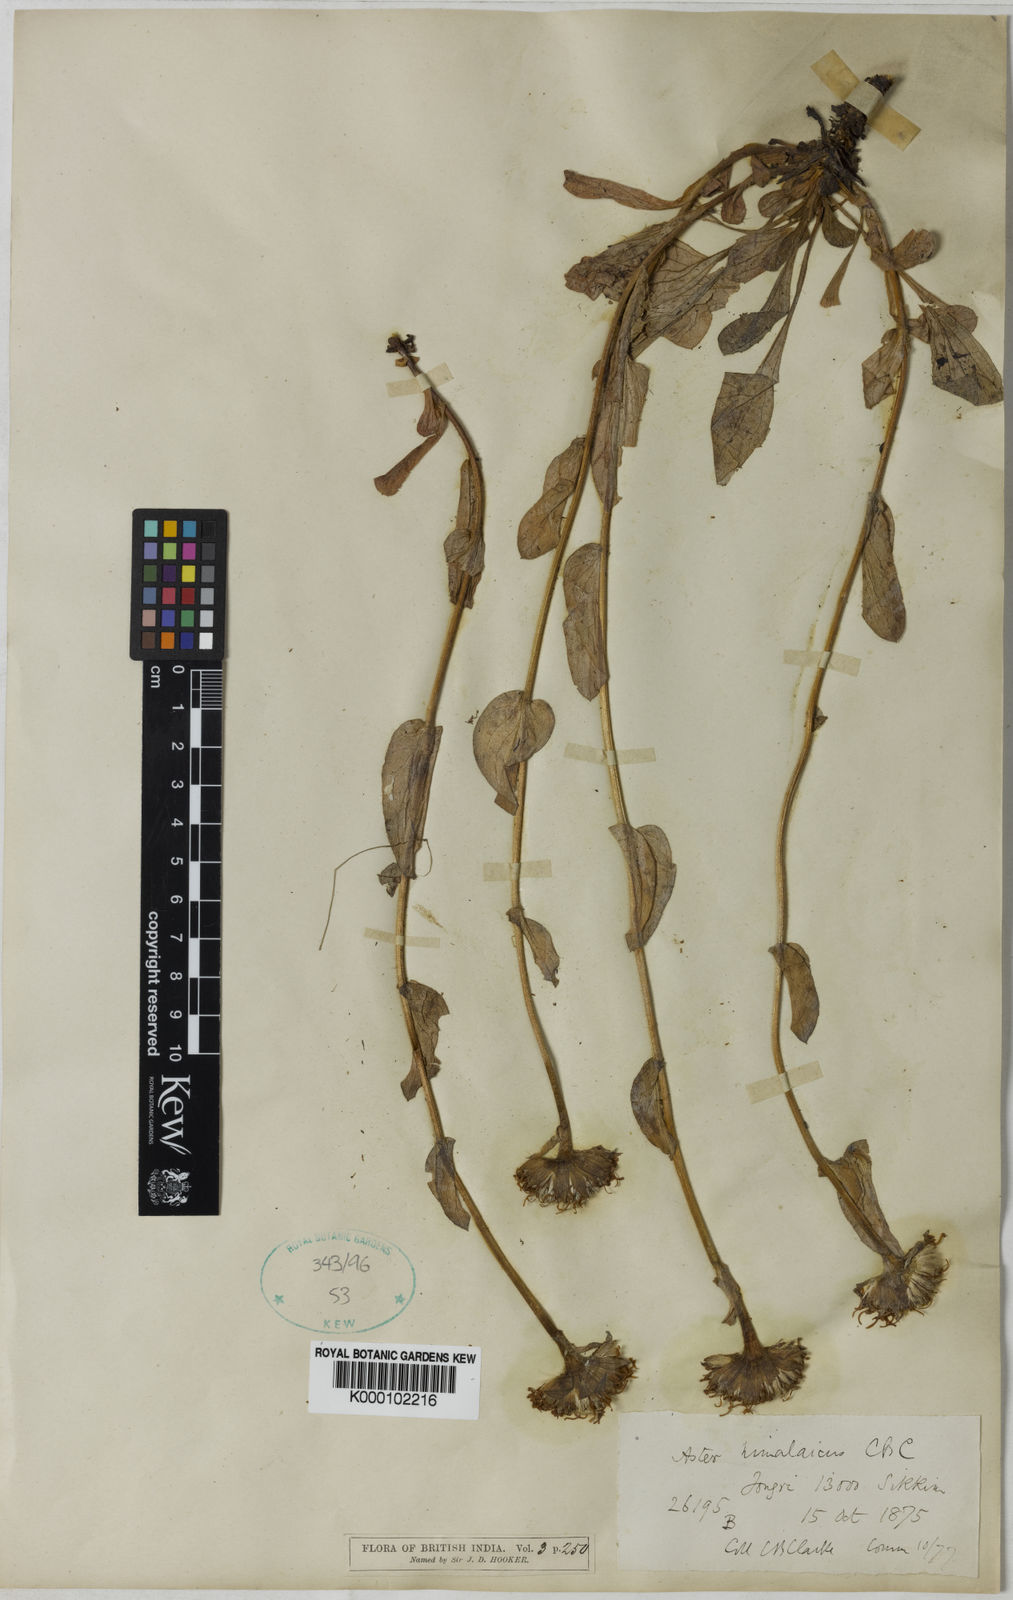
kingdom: Plantae
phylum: Tracheophyta
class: Magnoliopsida
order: Asterales
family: Asteraceae
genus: Tibetiodes
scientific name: Tibetiodes himalaica
